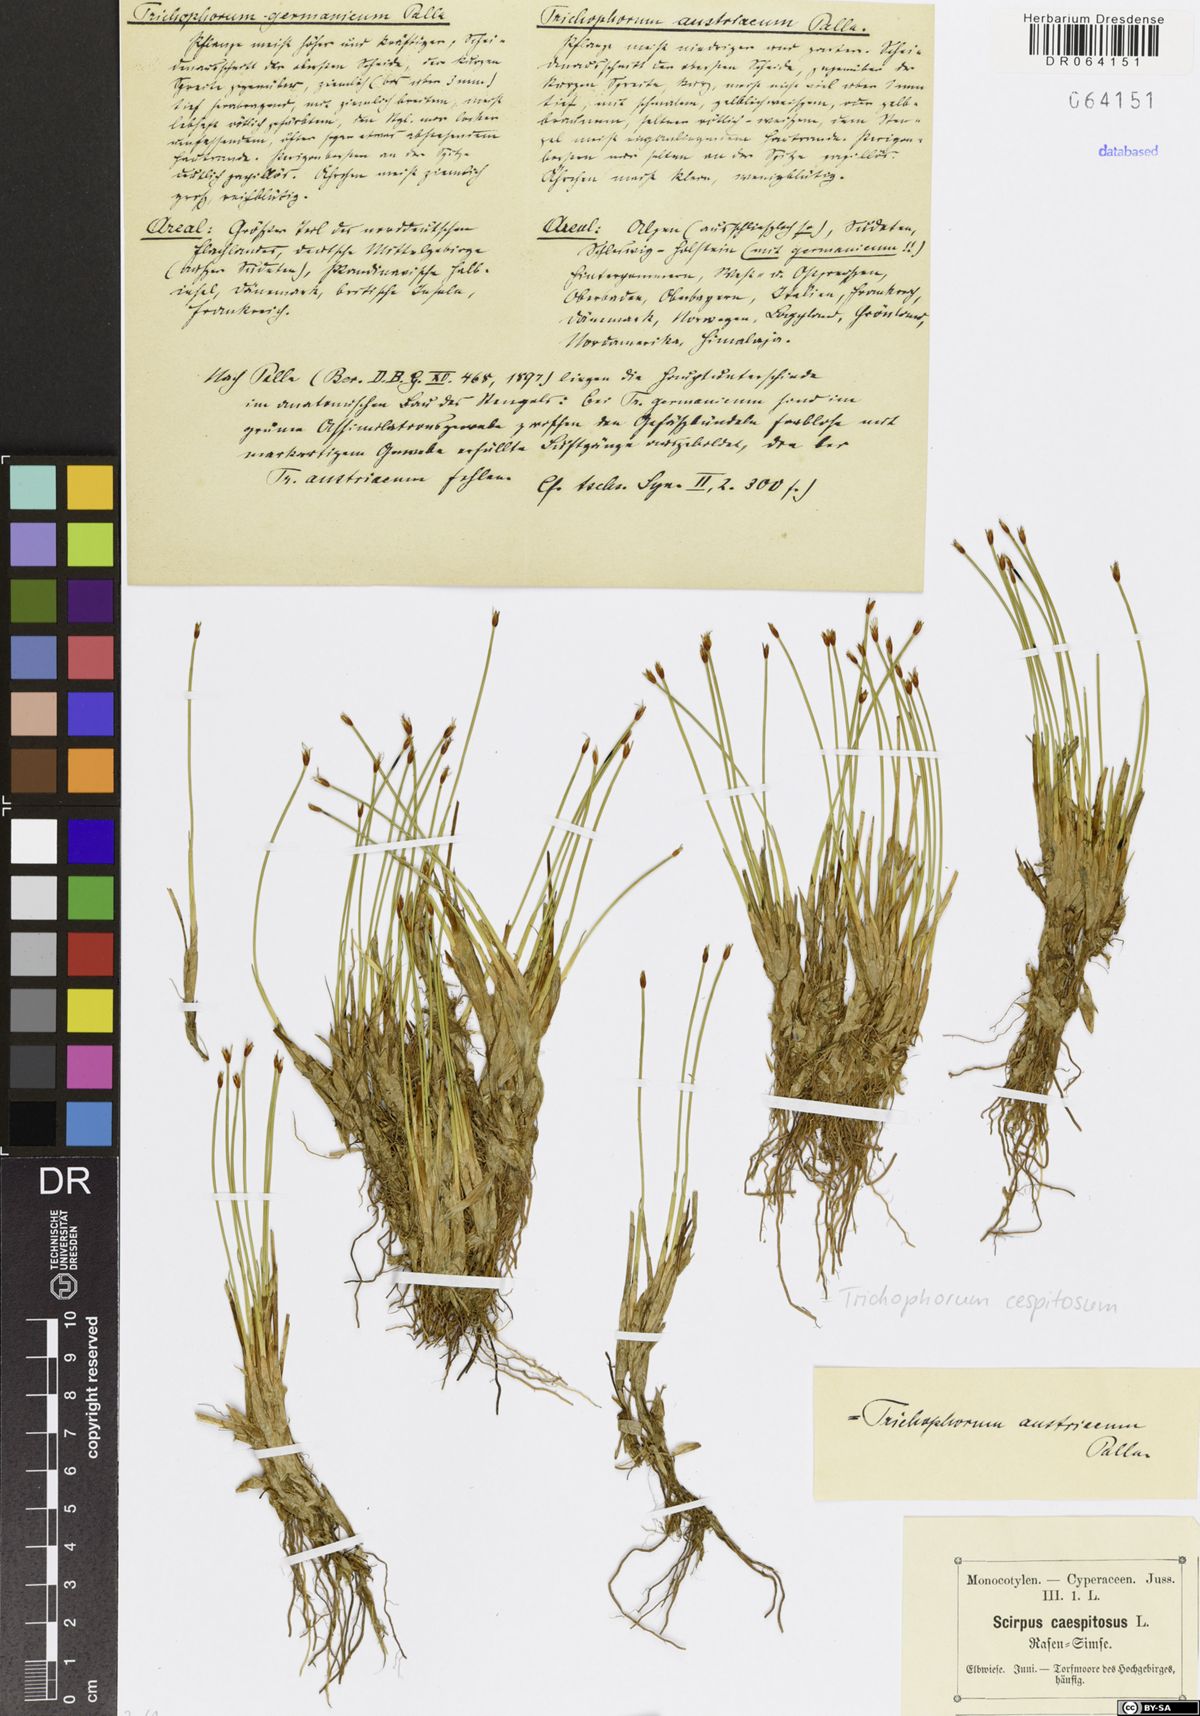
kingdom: Plantae
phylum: Tracheophyta
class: Liliopsida
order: Poales
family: Cyperaceae
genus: Trichophorum
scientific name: Trichophorum cespitosum
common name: Cespitose bulrush
